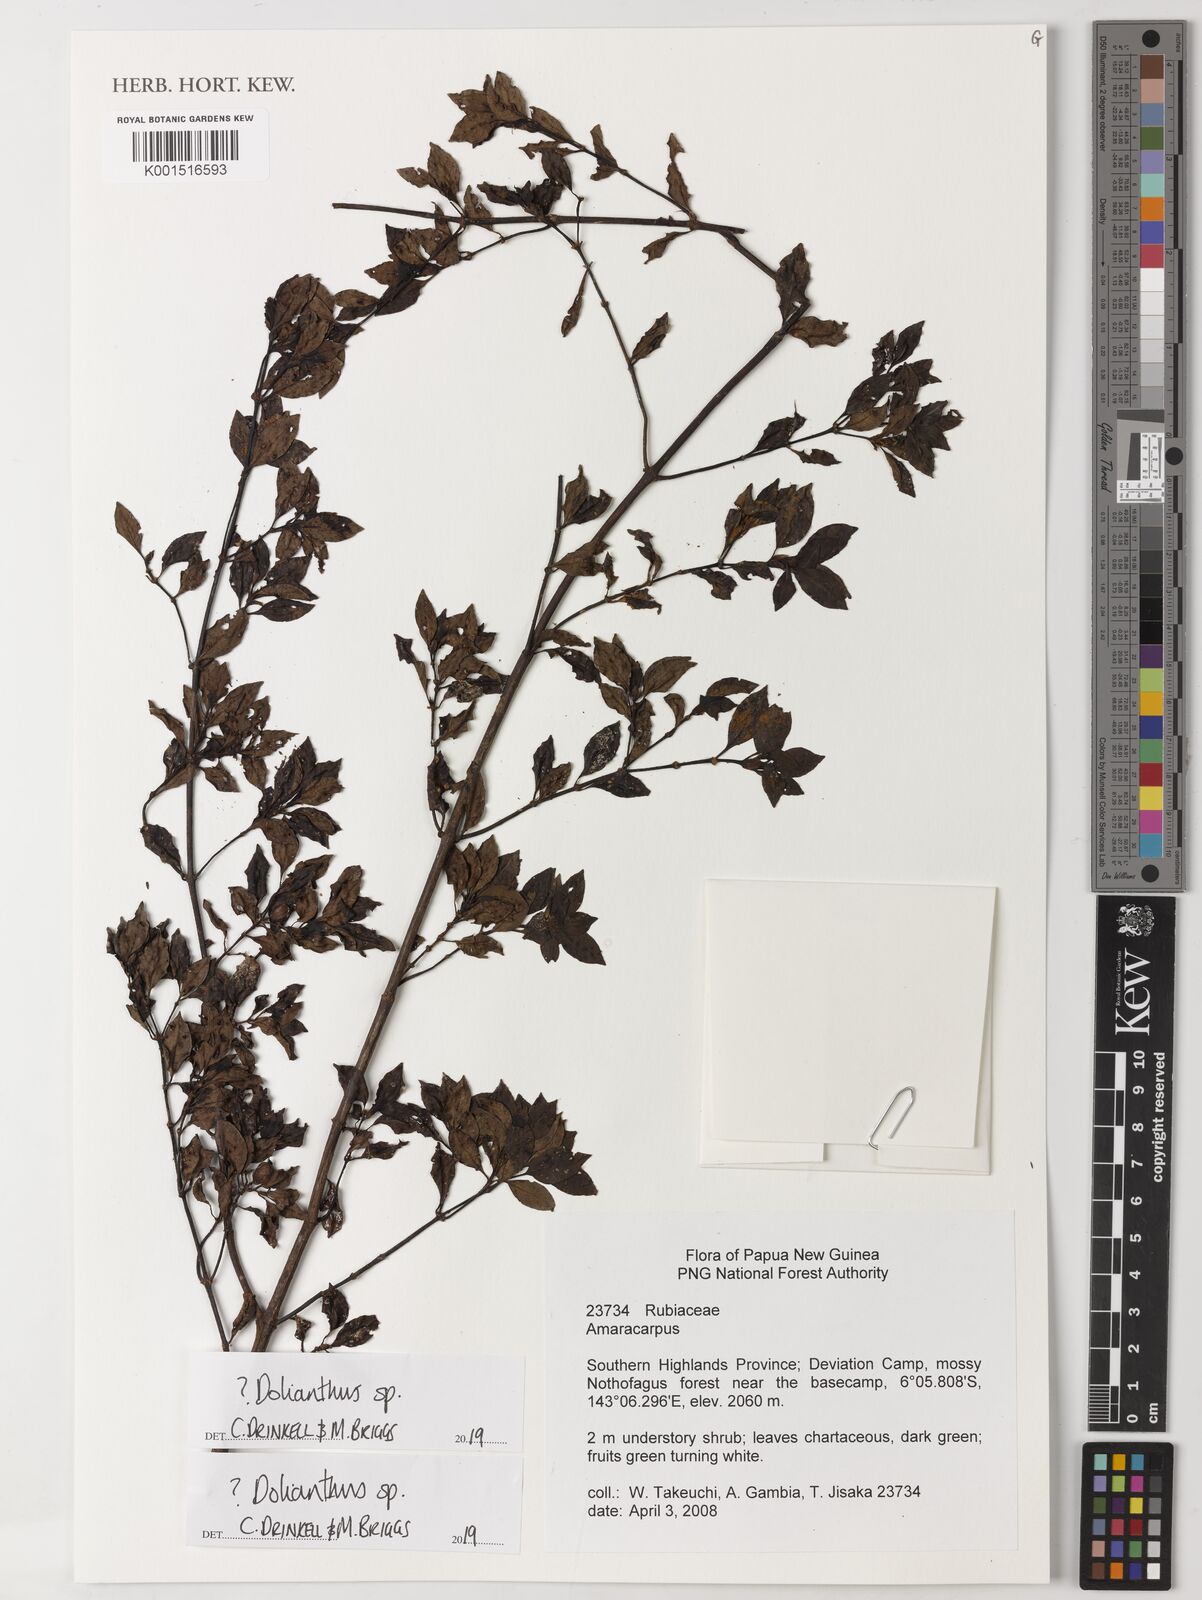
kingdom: Plantae
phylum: Tracheophyta
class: Magnoliopsida
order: Gentianales
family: Rubiaceae
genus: Dolianthus
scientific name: Dolianthus
